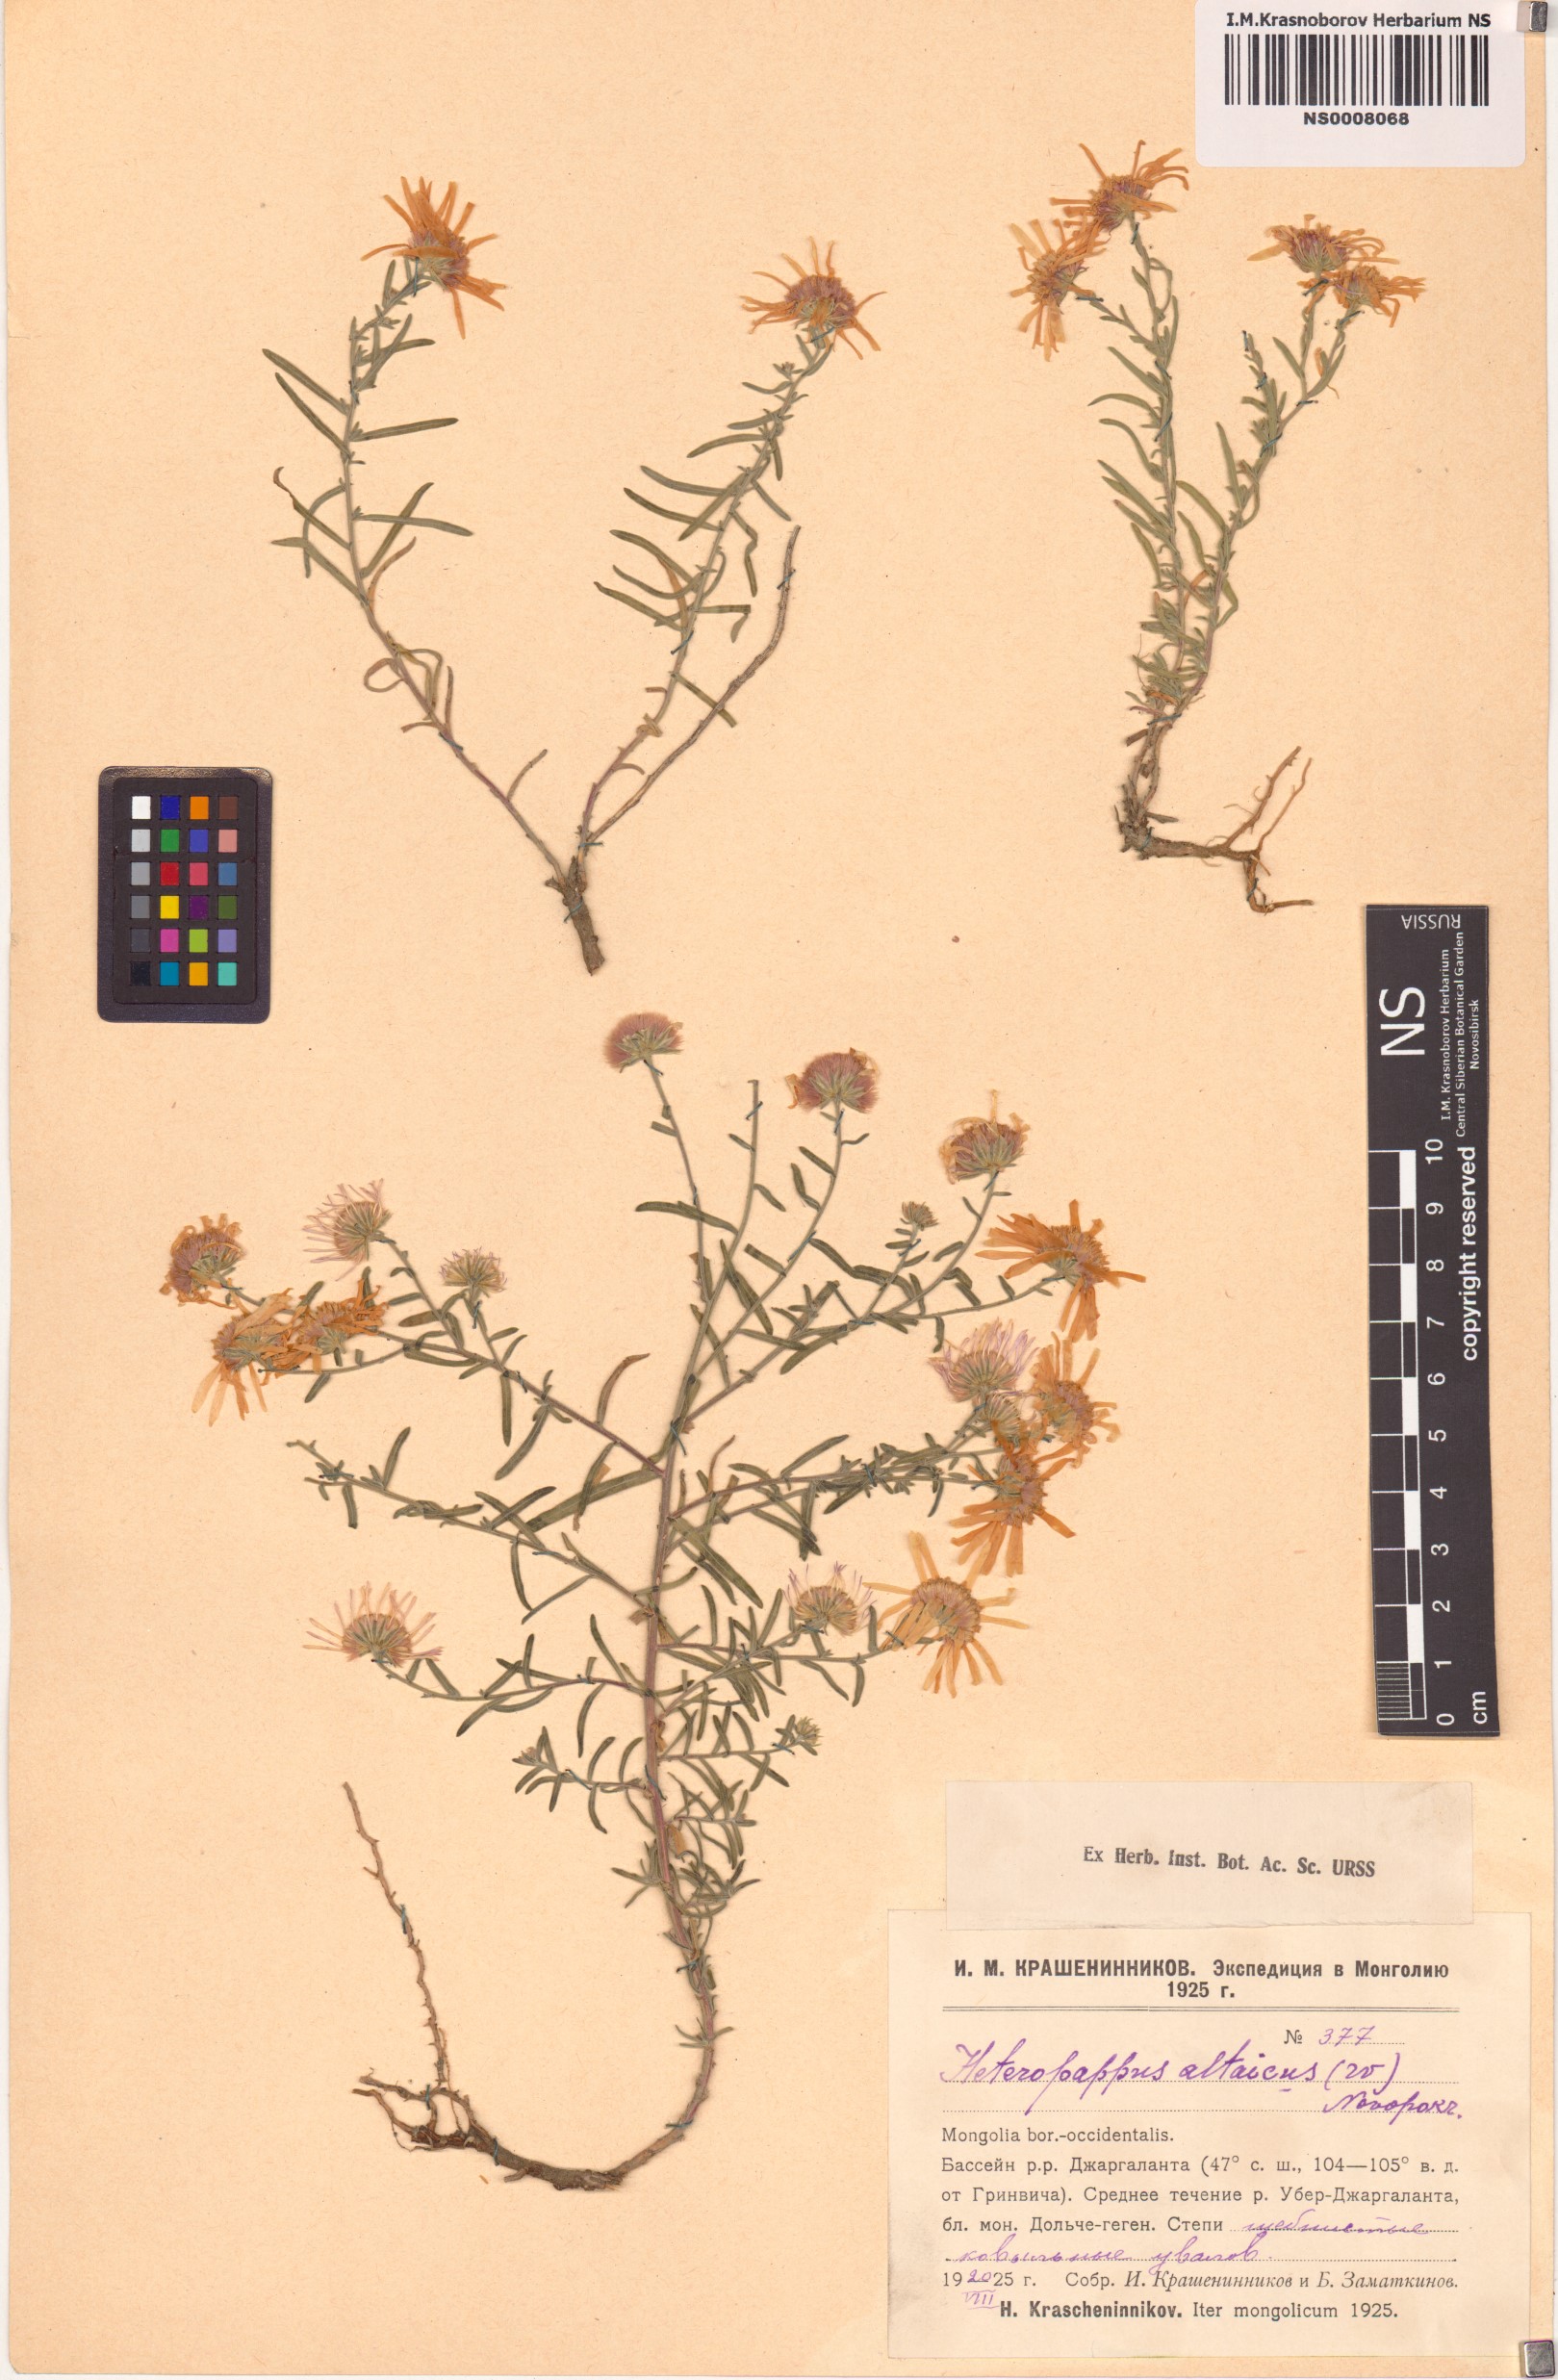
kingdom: Plantae
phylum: Tracheophyta
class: Magnoliopsida
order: Asterales
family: Asteraceae
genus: Heteropappus
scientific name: Heteropappus altaicus
